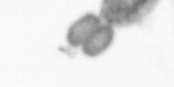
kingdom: Animalia
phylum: Arthropoda
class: Maxillopoda
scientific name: Maxillopoda
